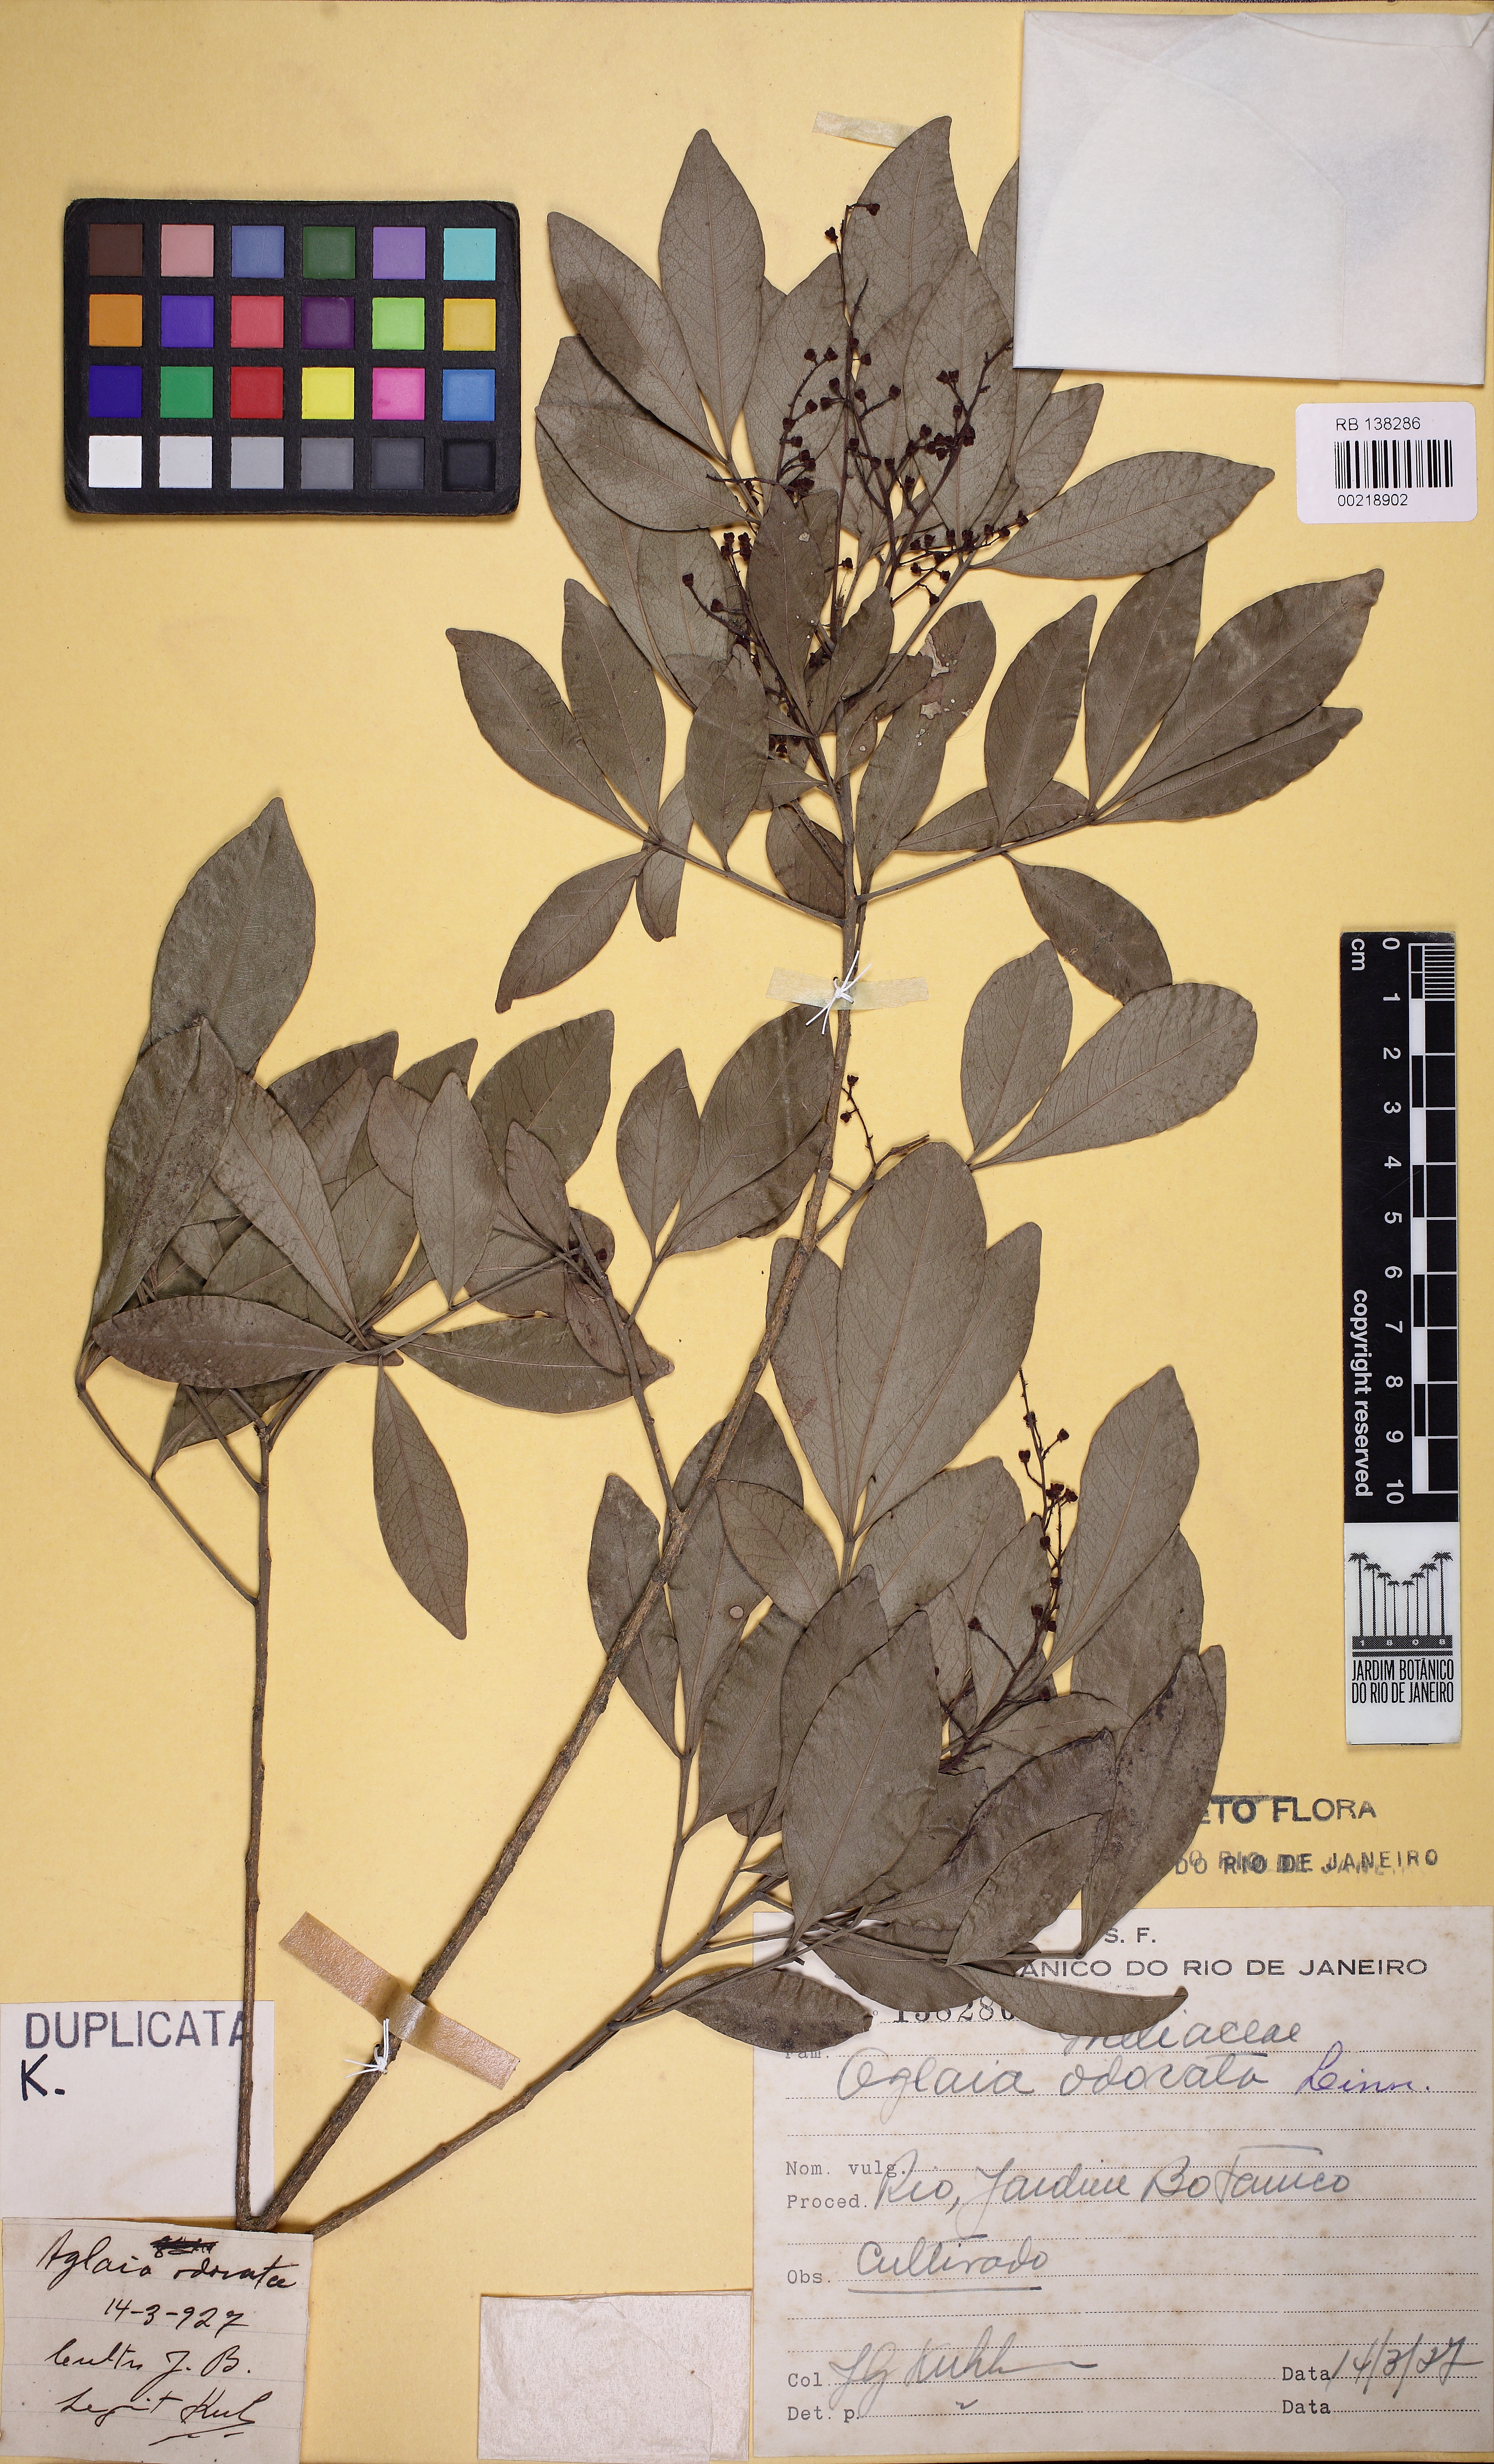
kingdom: Plantae
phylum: Tracheophyta
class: Magnoliopsida
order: Sapindales
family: Meliaceae
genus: Aglaia
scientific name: Aglaia odorata
